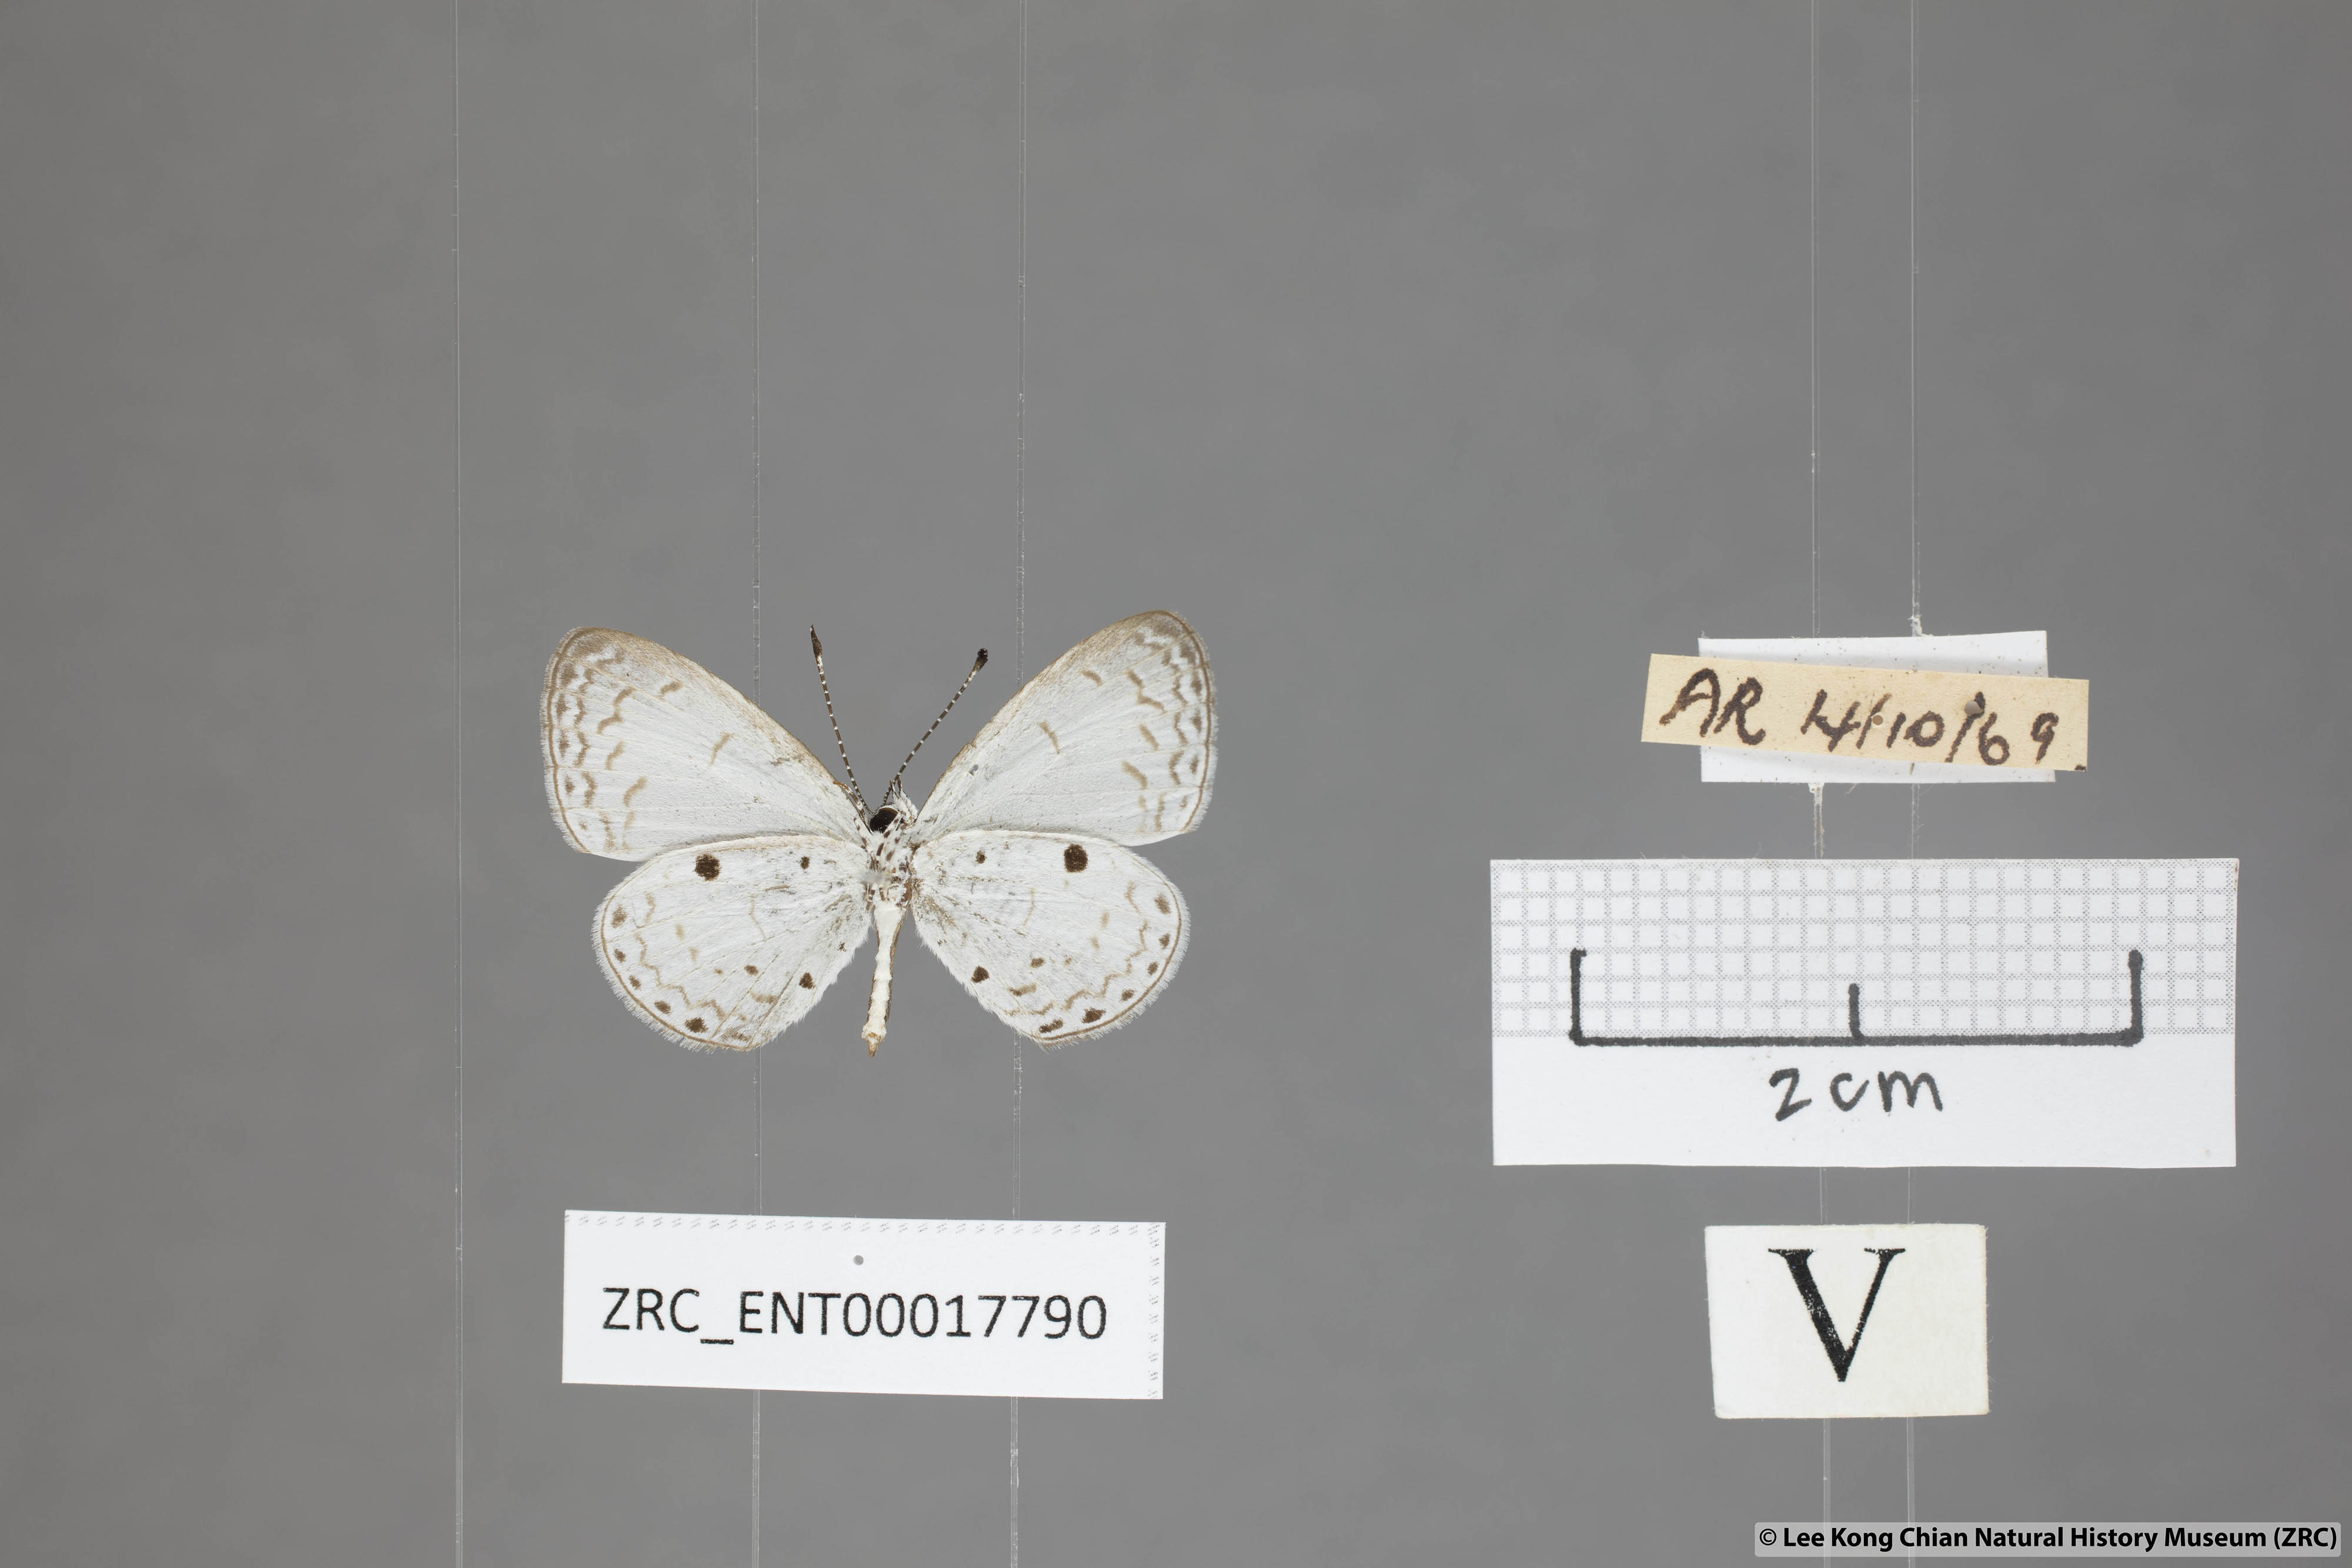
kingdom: Animalia
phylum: Arthropoda
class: Insecta
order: Lepidoptera
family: Lycaenidae
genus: Callenya
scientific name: Callenya lenya
